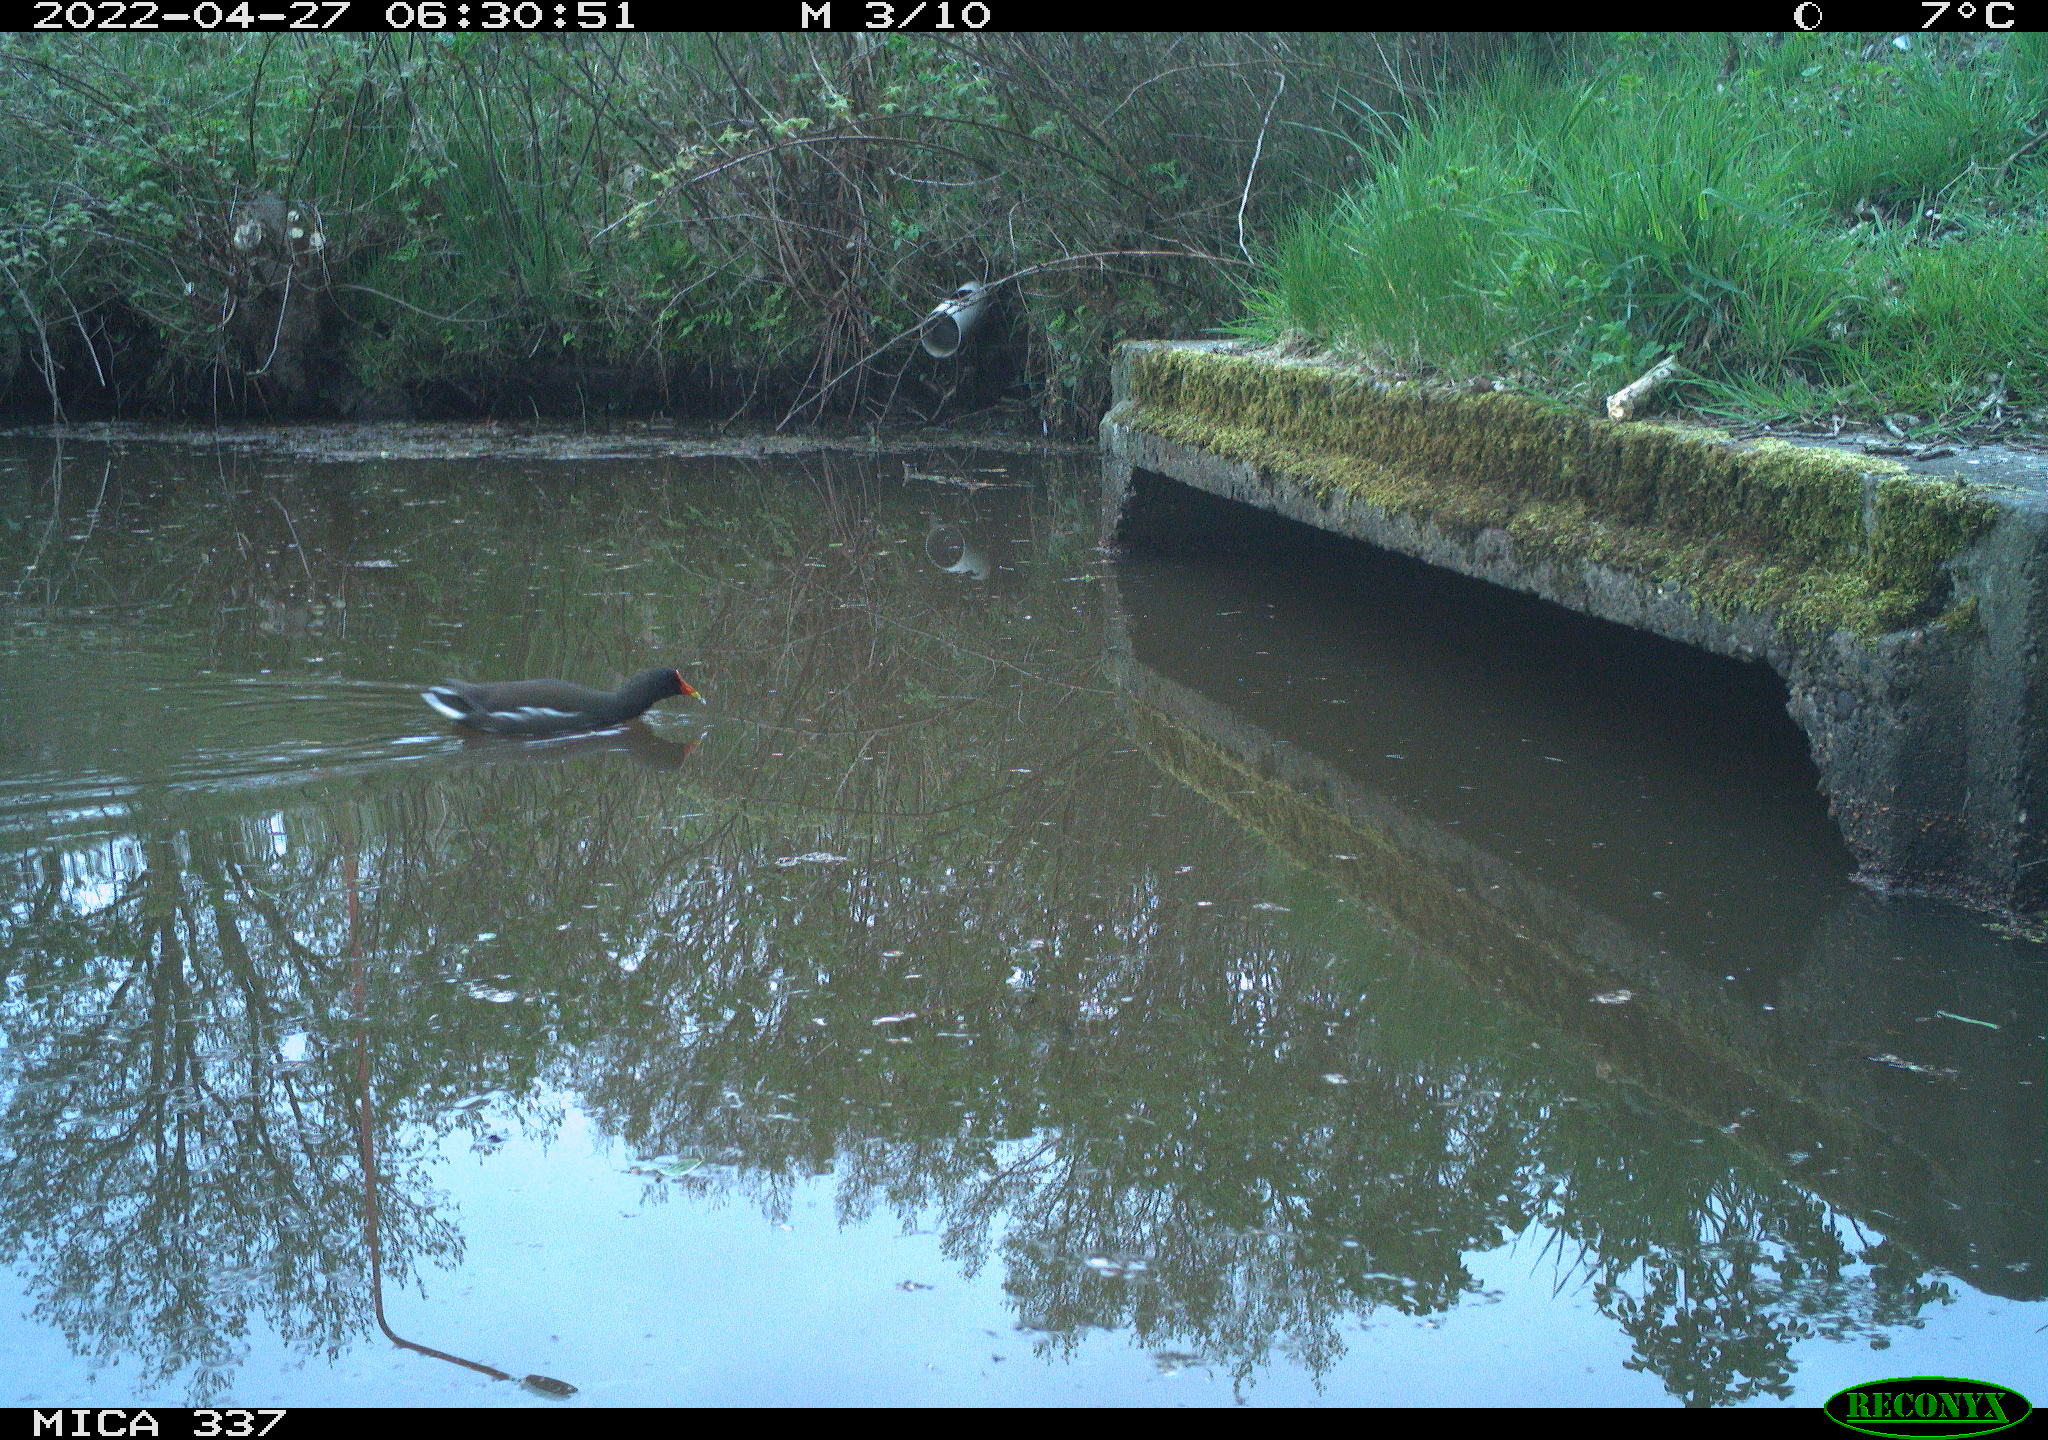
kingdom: Animalia
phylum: Chordata
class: Aves
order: Gruiformes
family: Rallidae
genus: Gallinula
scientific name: Gallinula chloropus
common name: Common moorhen
